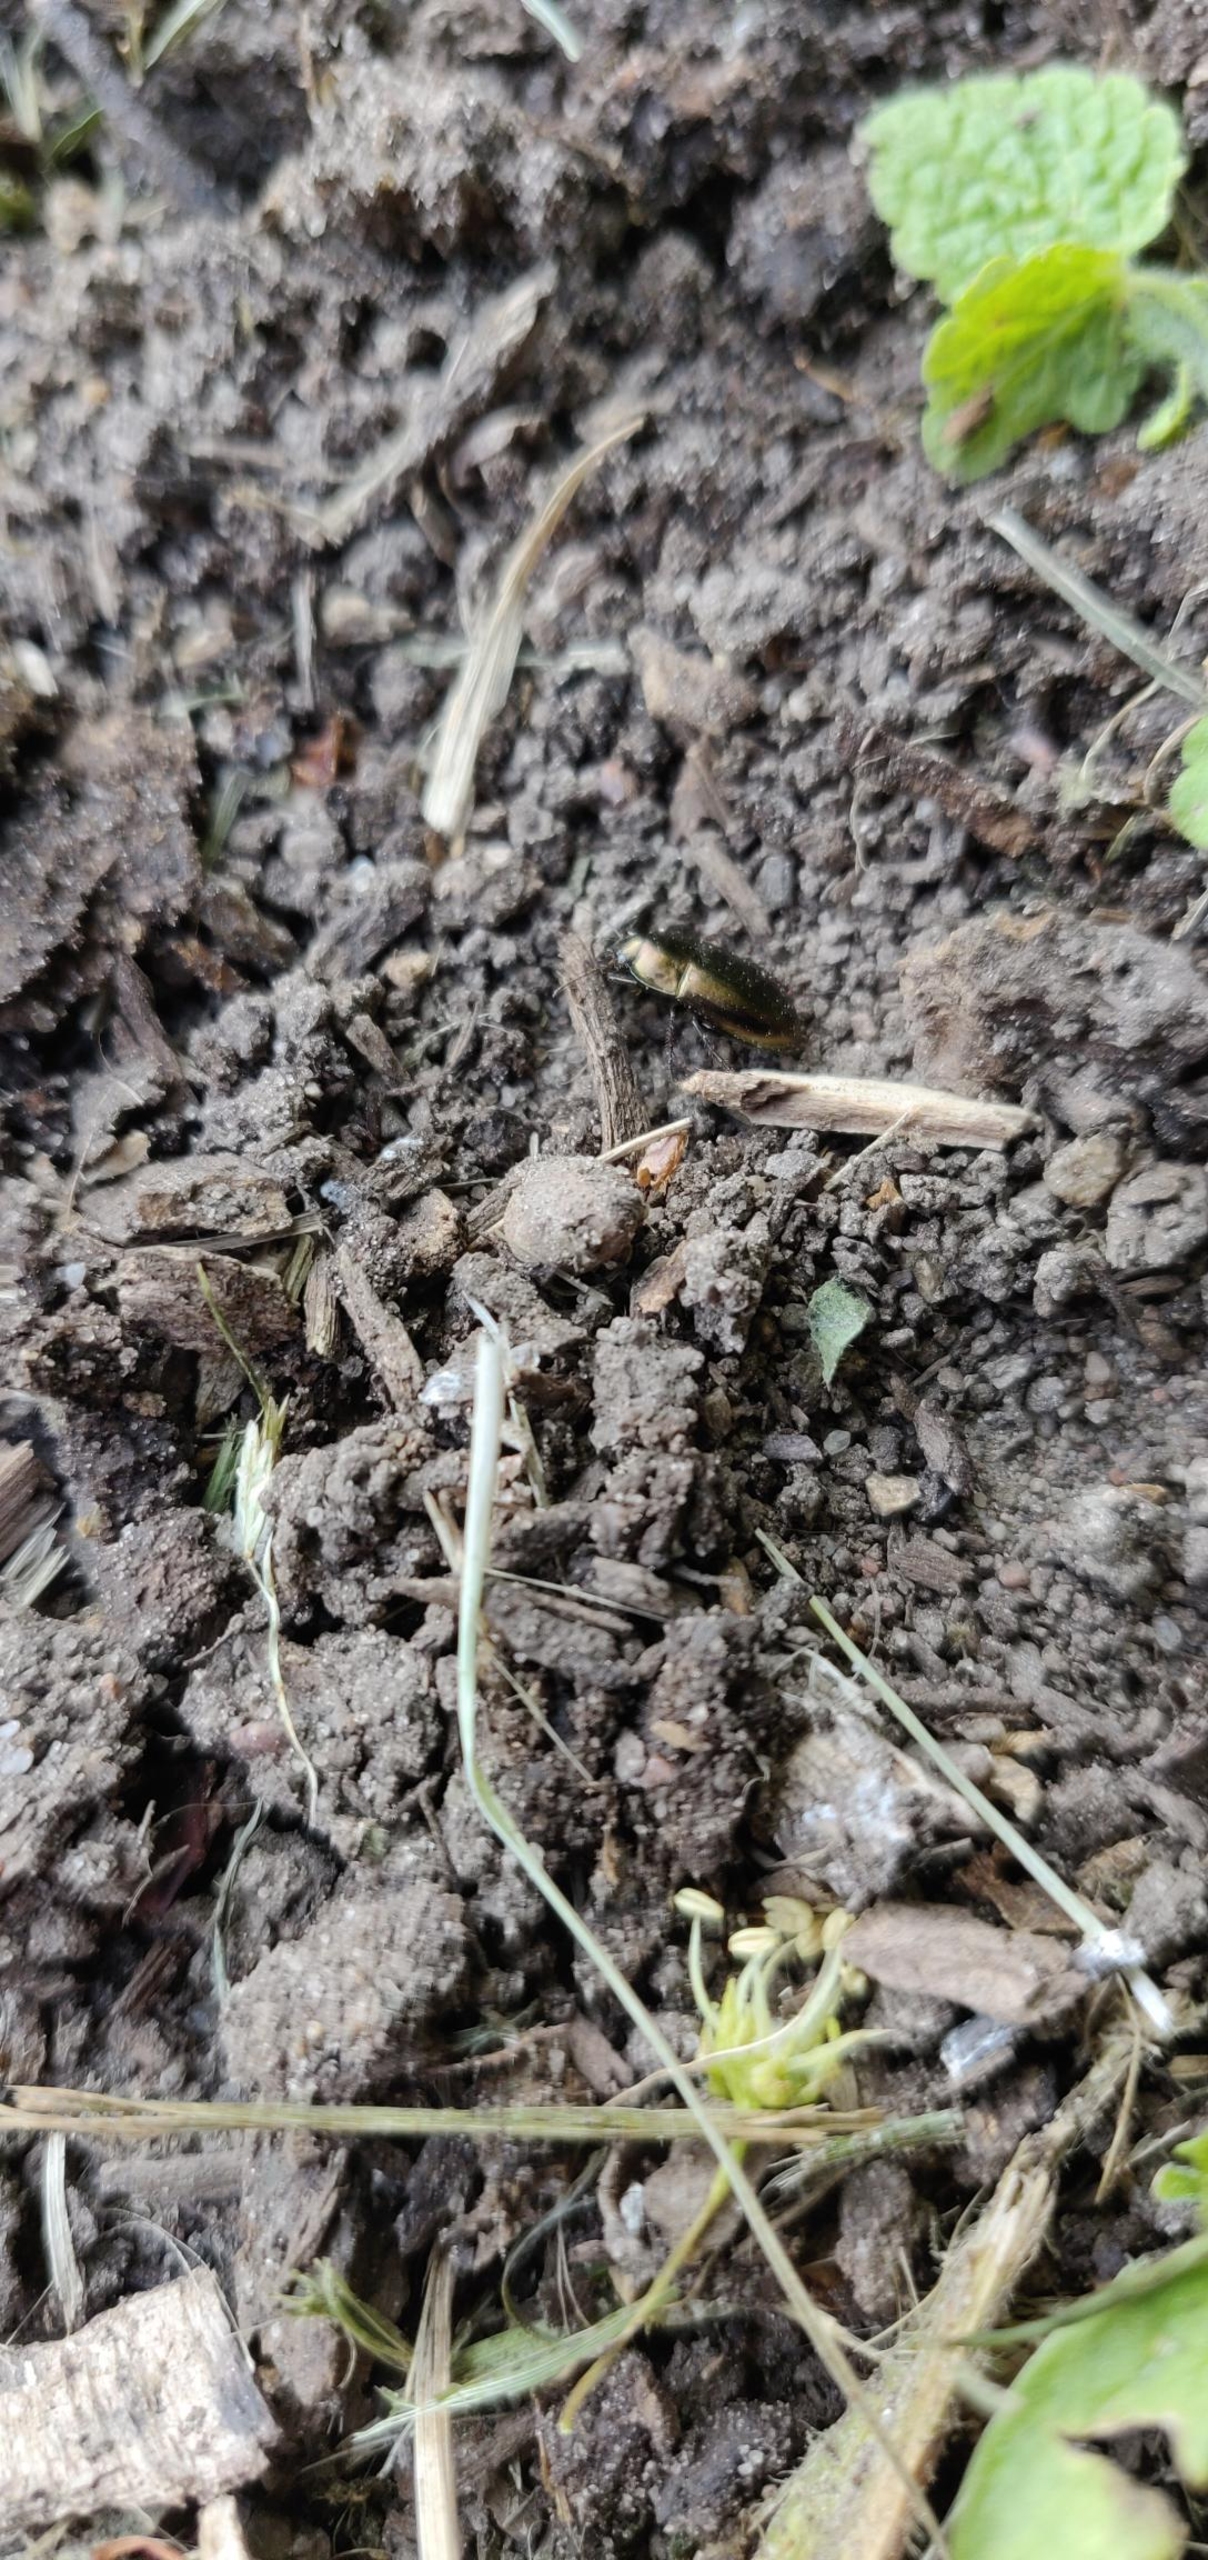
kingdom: Animalia
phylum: Arthropoda
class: Insecta
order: Coleoptera
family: Carabidae
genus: Amara
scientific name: Amara
